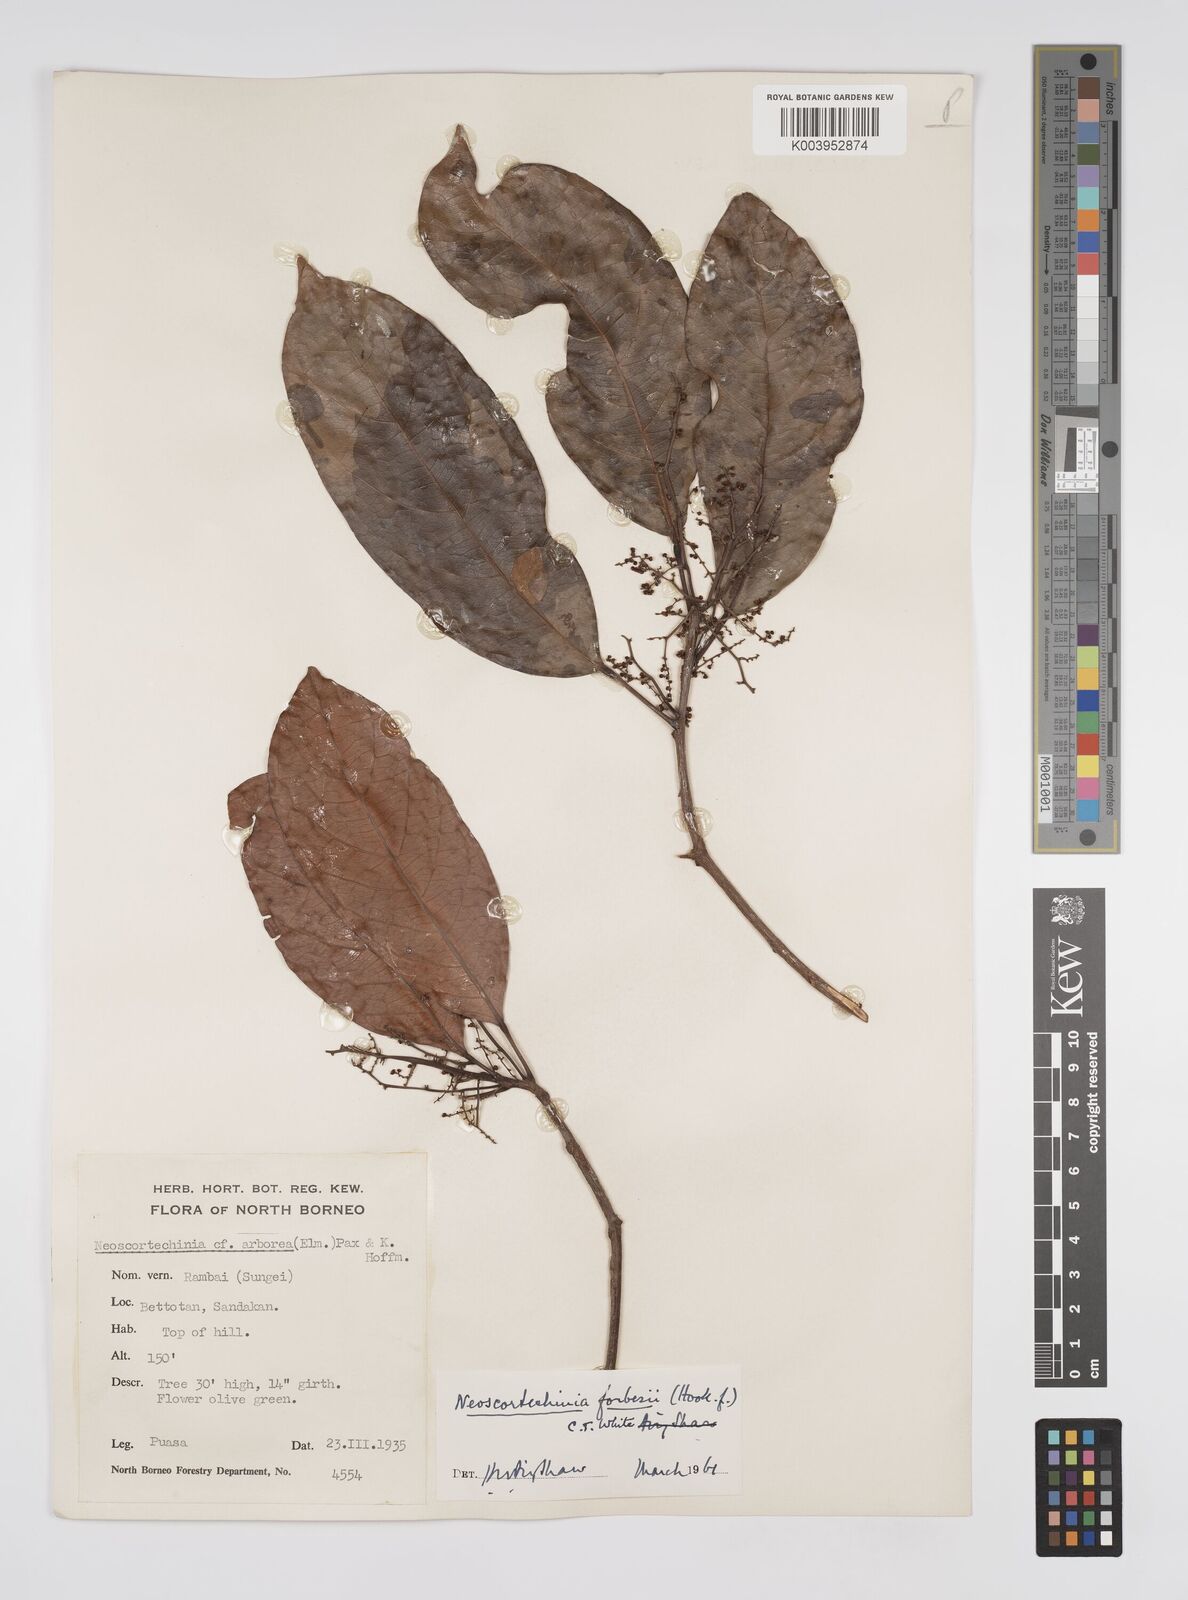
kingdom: Plantae
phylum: Tracheophyta
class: Magnoliopsida
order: Malpighiales
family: Euphorbiaceae
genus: Neoscortechinia
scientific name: Neoscortechinia philippinensis
